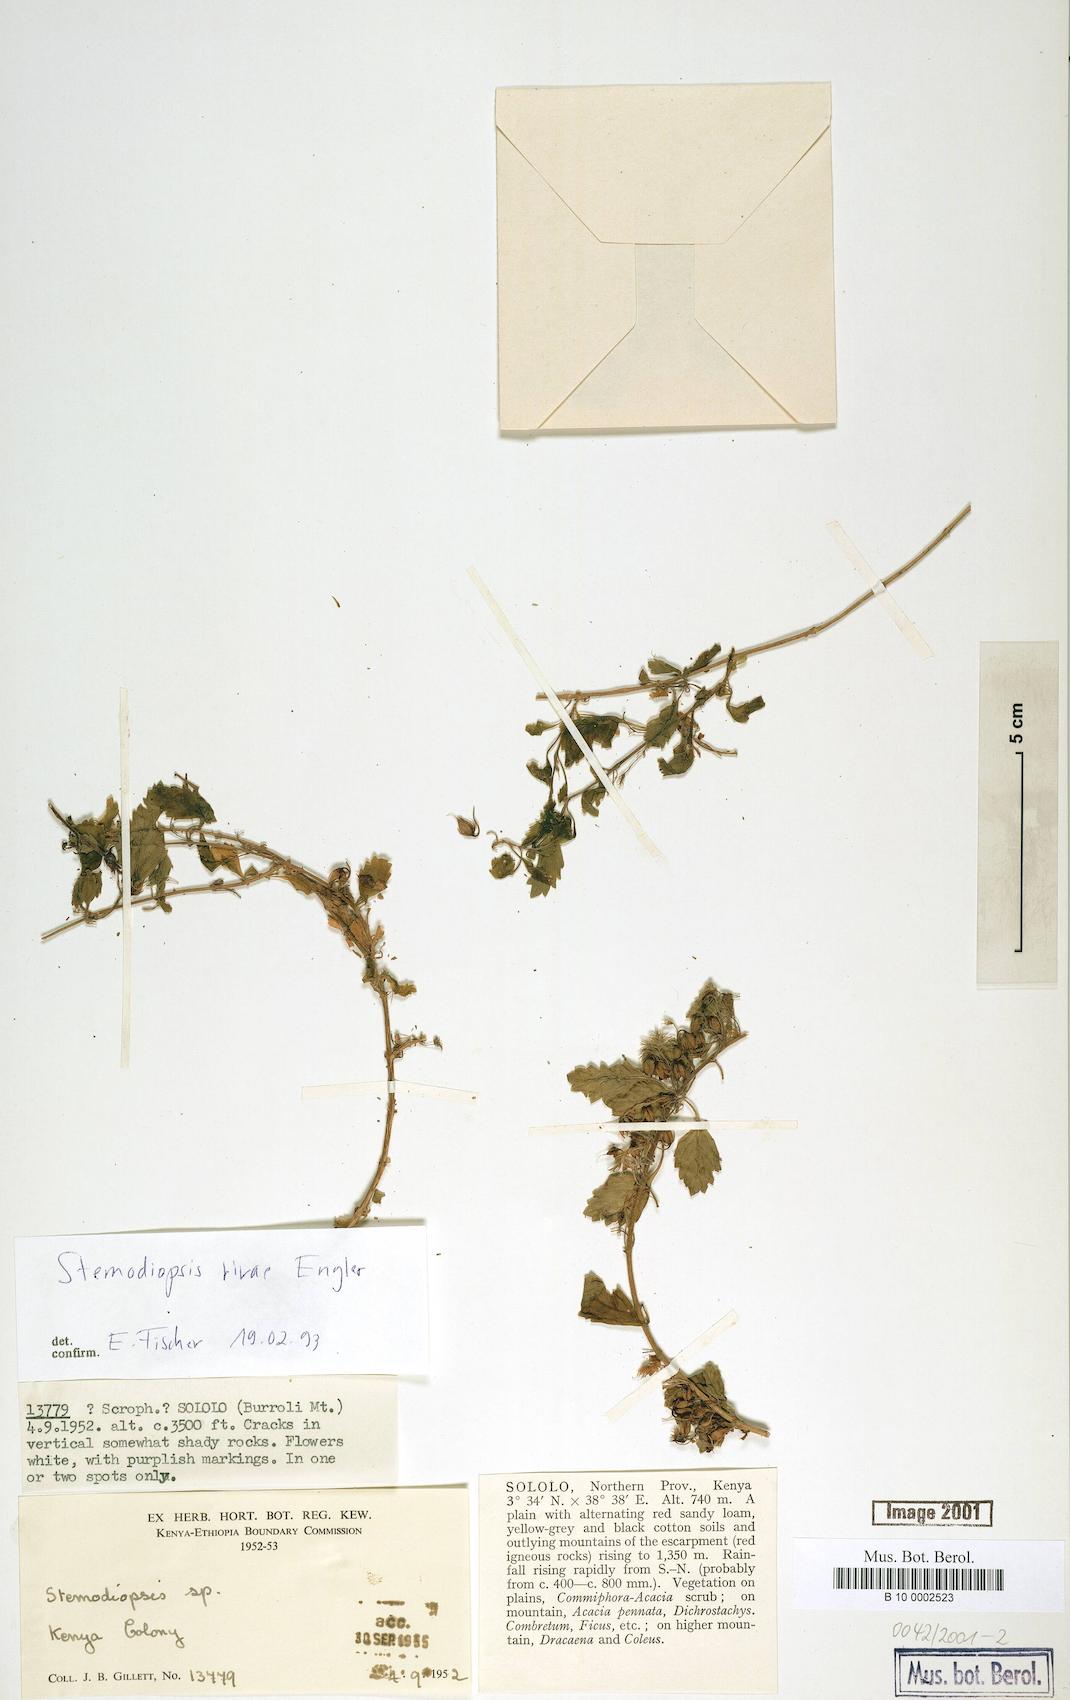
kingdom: Plantae
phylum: Tracheophyta
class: Magnoliopsida
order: Lamiales
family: Linderniaceae
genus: Stemodiopsis
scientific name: Stemodiopsis rivae
